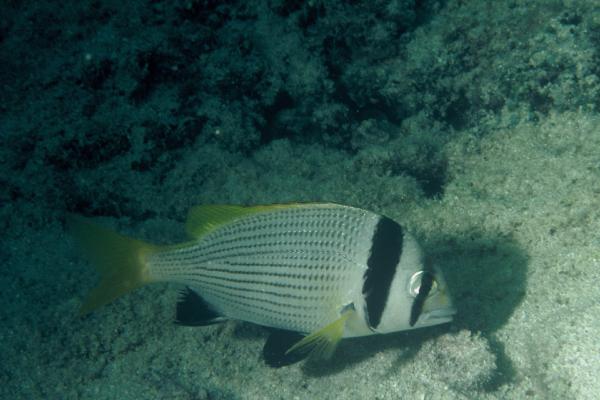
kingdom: Animalia
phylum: Chordata
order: Perciformes
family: Sparidae
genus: Acanthopagrus
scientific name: Acanthopagrus bifasciatus
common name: Twobar seabream
